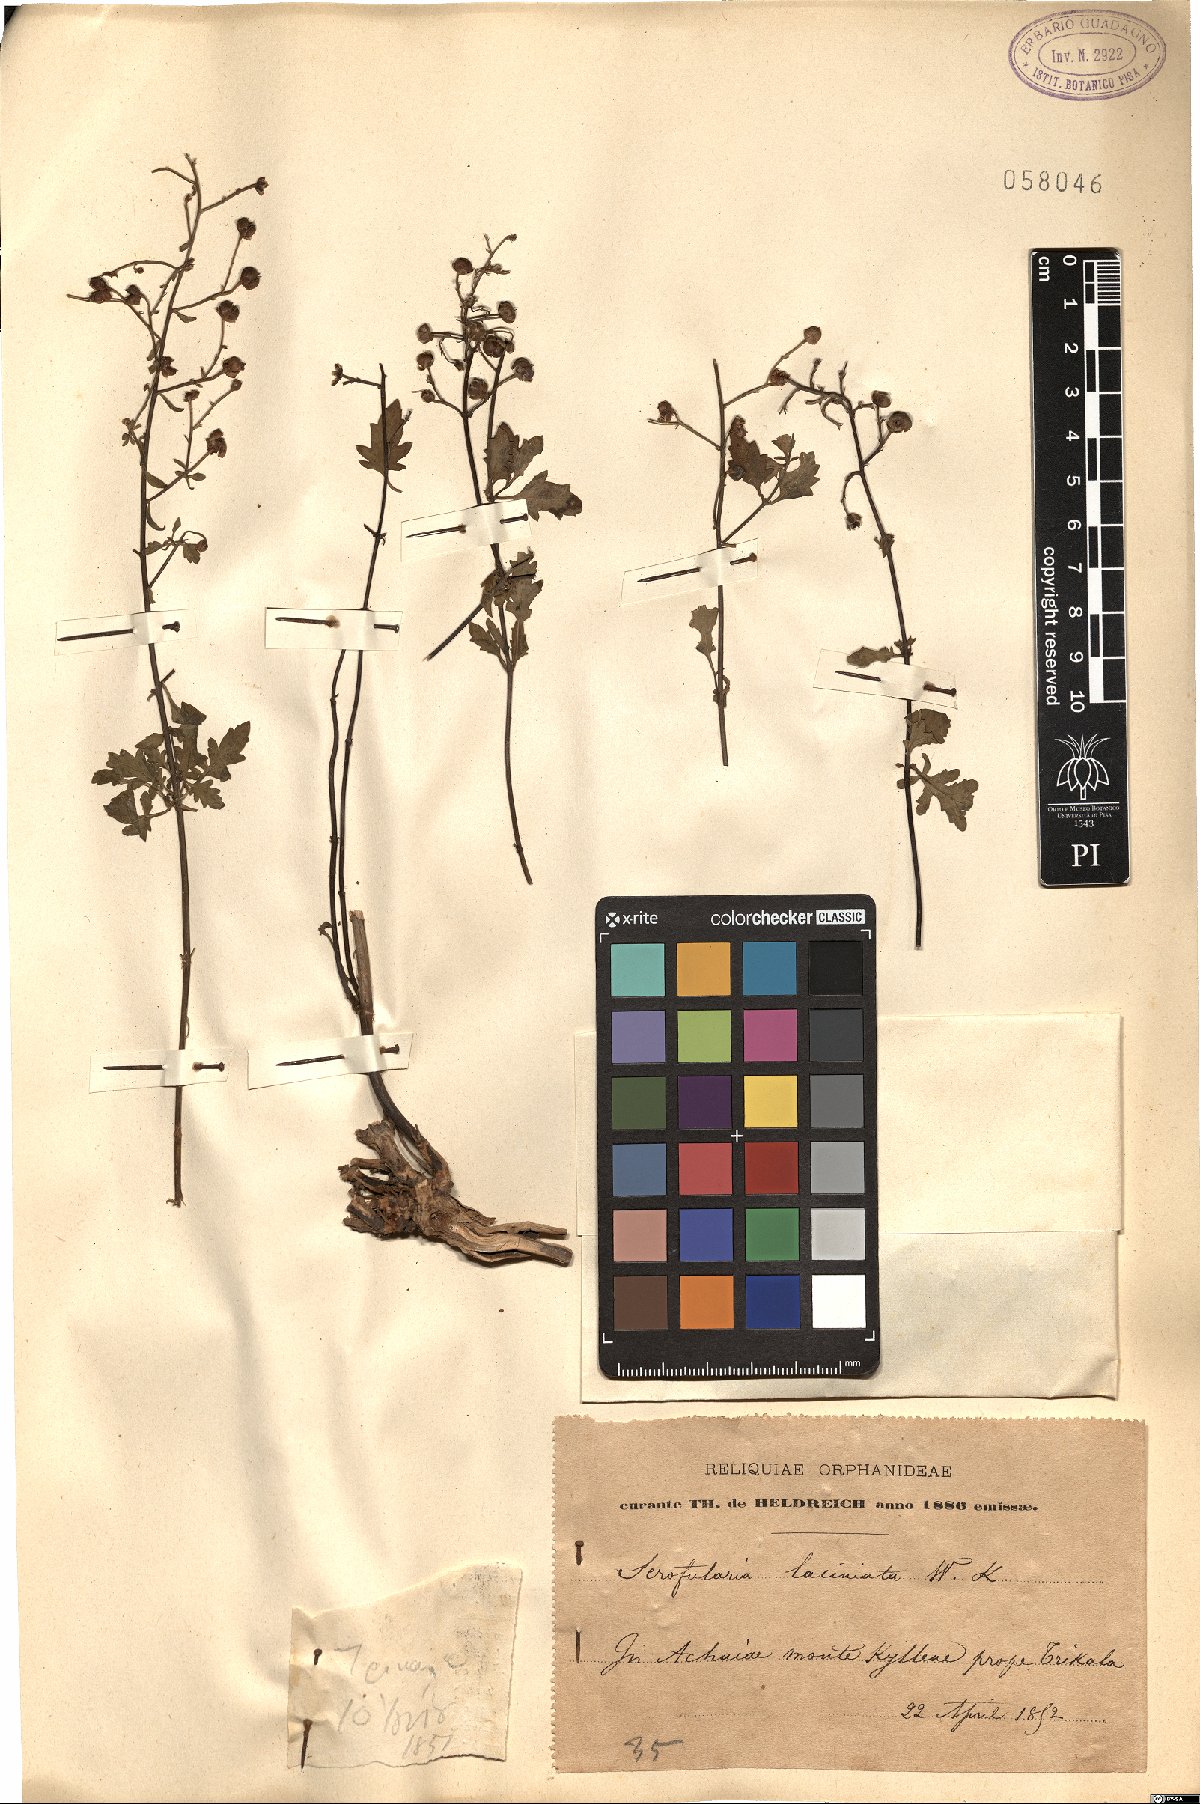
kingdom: Plantae
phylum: Tracheophyta
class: Magnoliopsida
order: Lamiales
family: Scrophulariaceae
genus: Scrophularia
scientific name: Scrophularia laciniata
